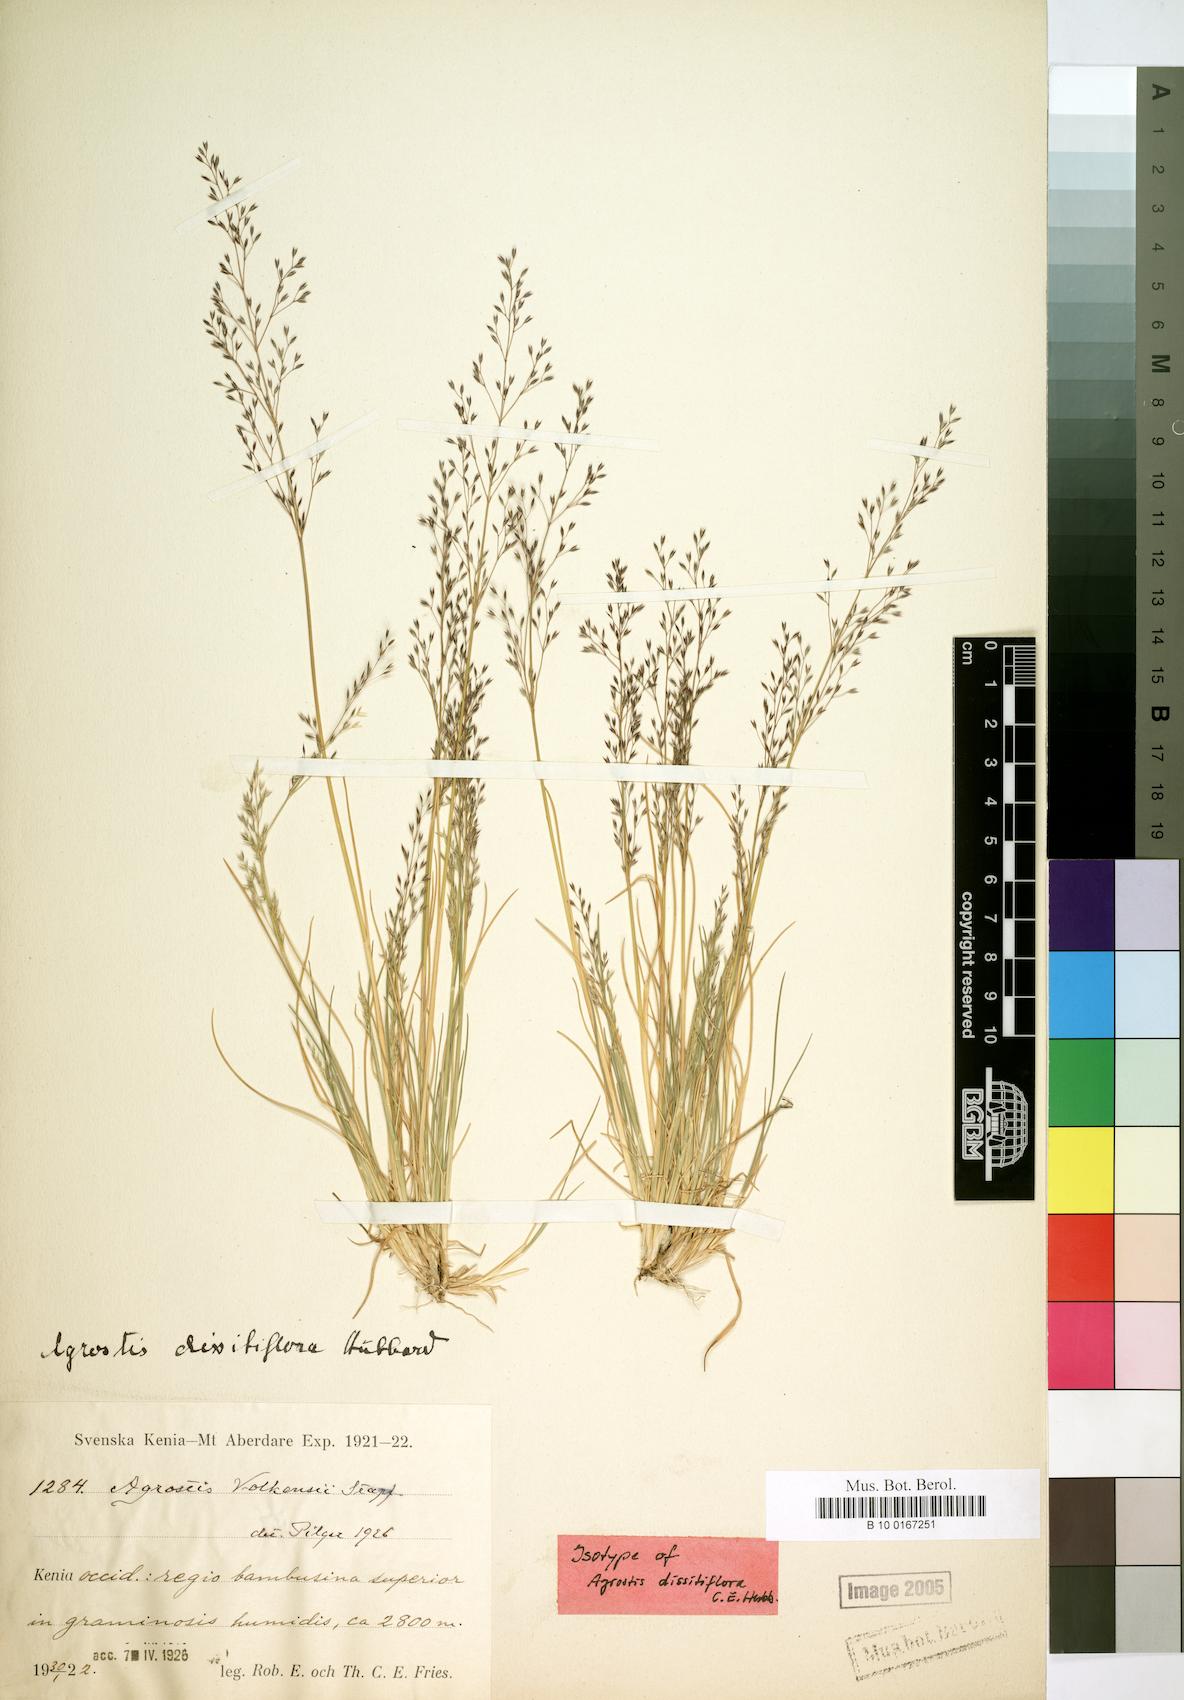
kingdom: Plantae
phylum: Tracheophyta
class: Liliopsida
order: Poales
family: Poaceae
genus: Agrostis
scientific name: Agrostis gracilifolia
